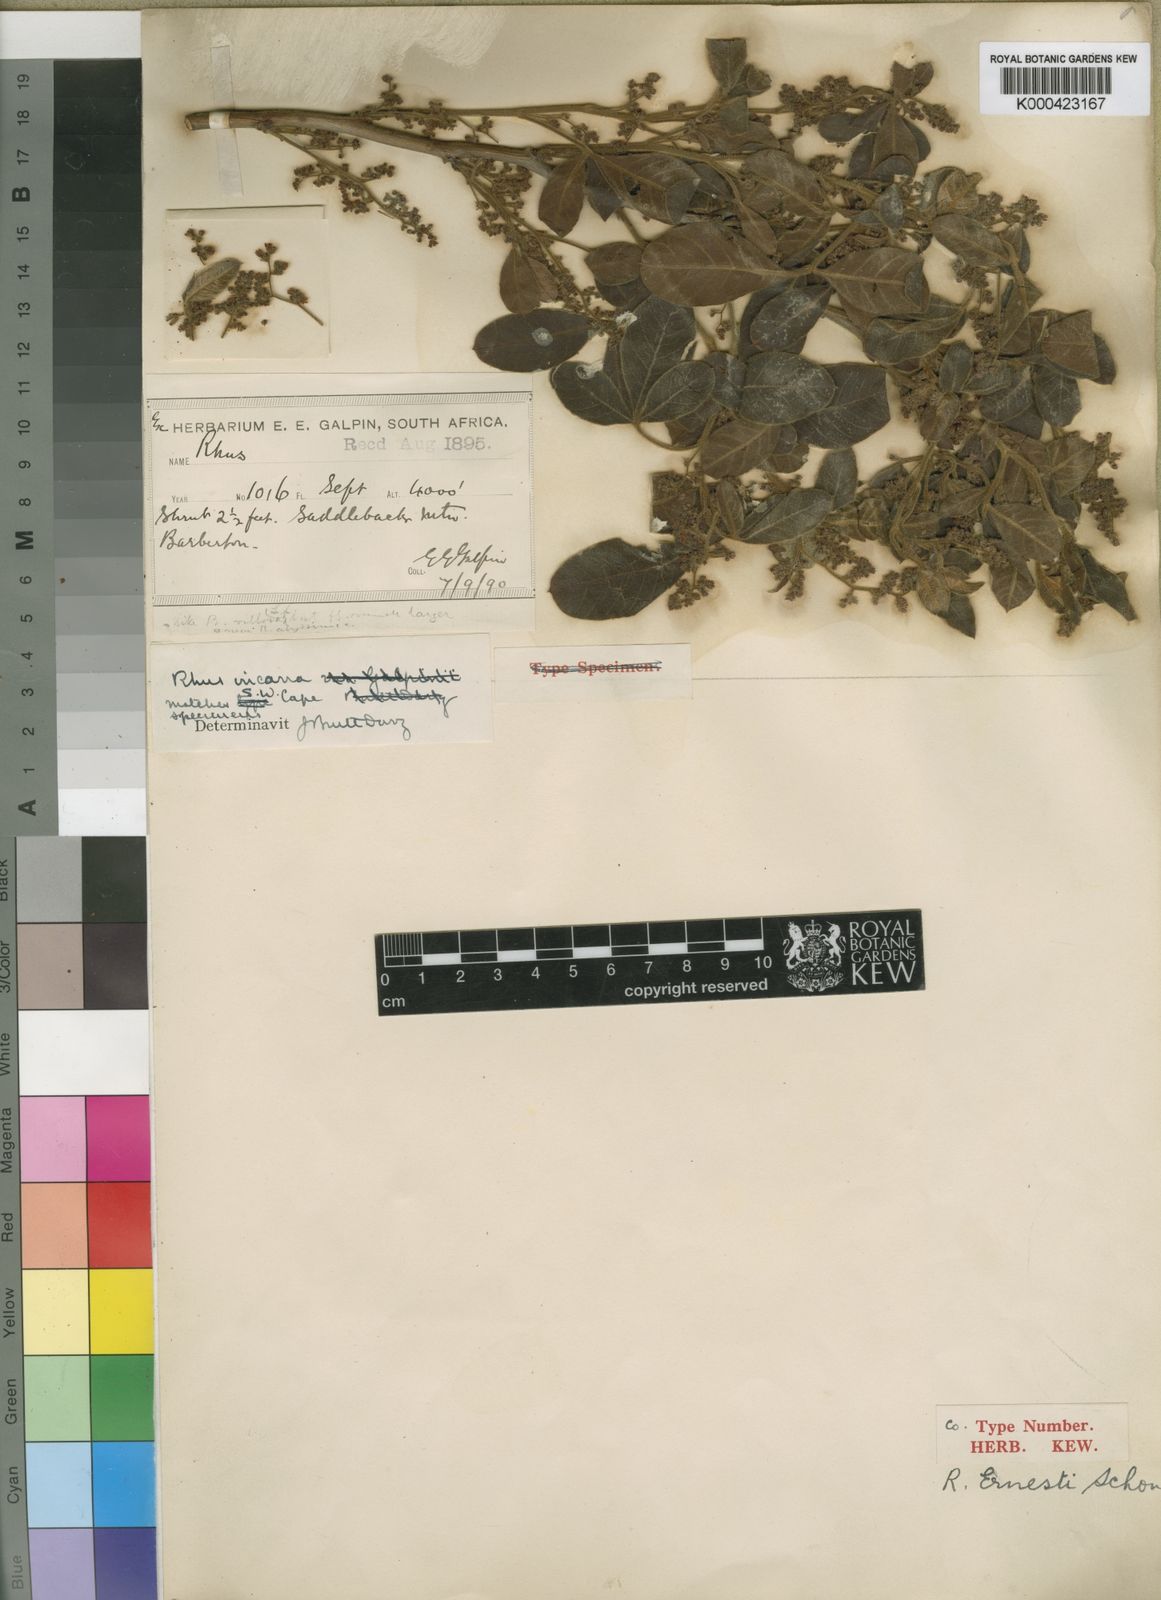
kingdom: Plantae
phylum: Tracheophyta
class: Magnoliopsida
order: Sapindales
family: Anacardiaceae
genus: Rhus
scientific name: Rhus
